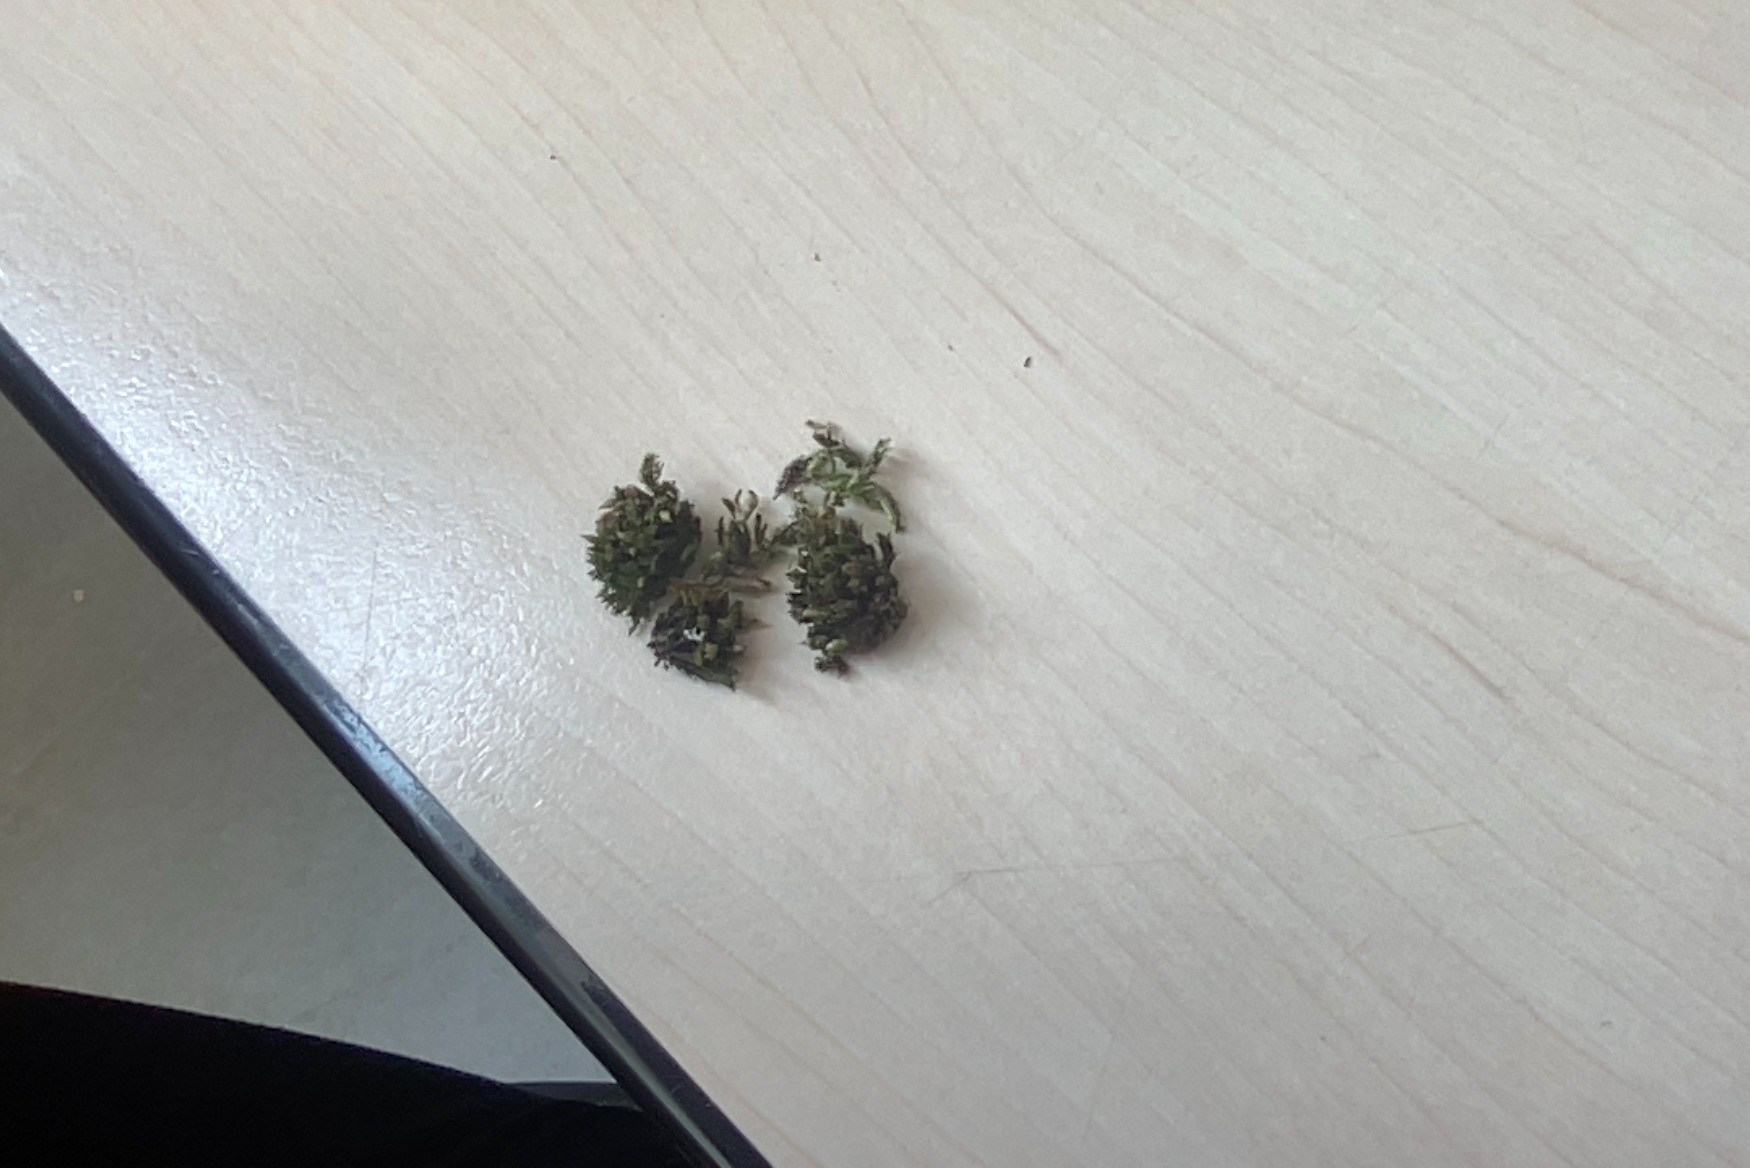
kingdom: Plantae
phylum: Bryophyta
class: Bryopsida
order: Orthotrichales
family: Orthotrichaceae
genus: Orthotrichum
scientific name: Orthotrichum
